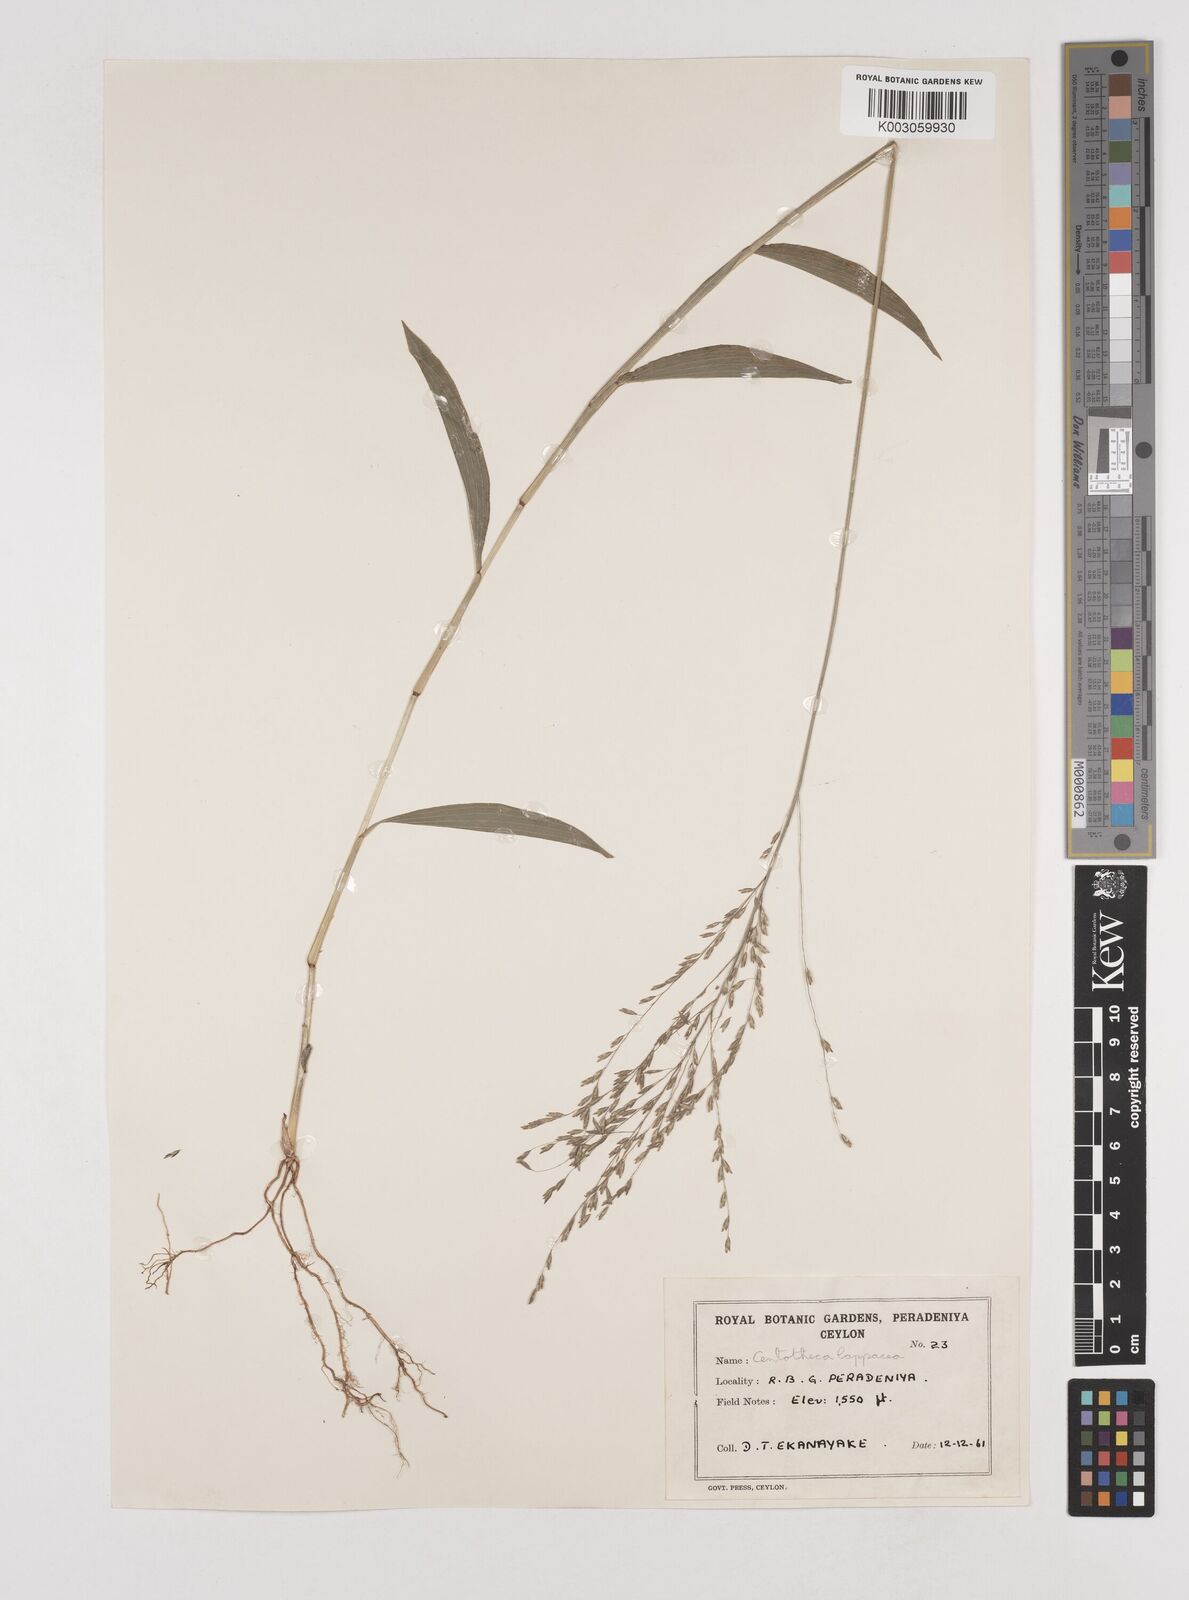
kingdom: Plantae
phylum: Tracheophyta
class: Liliopsida
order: Poales
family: Poaceae
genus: Centotheca
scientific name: Centotheca lappacea
